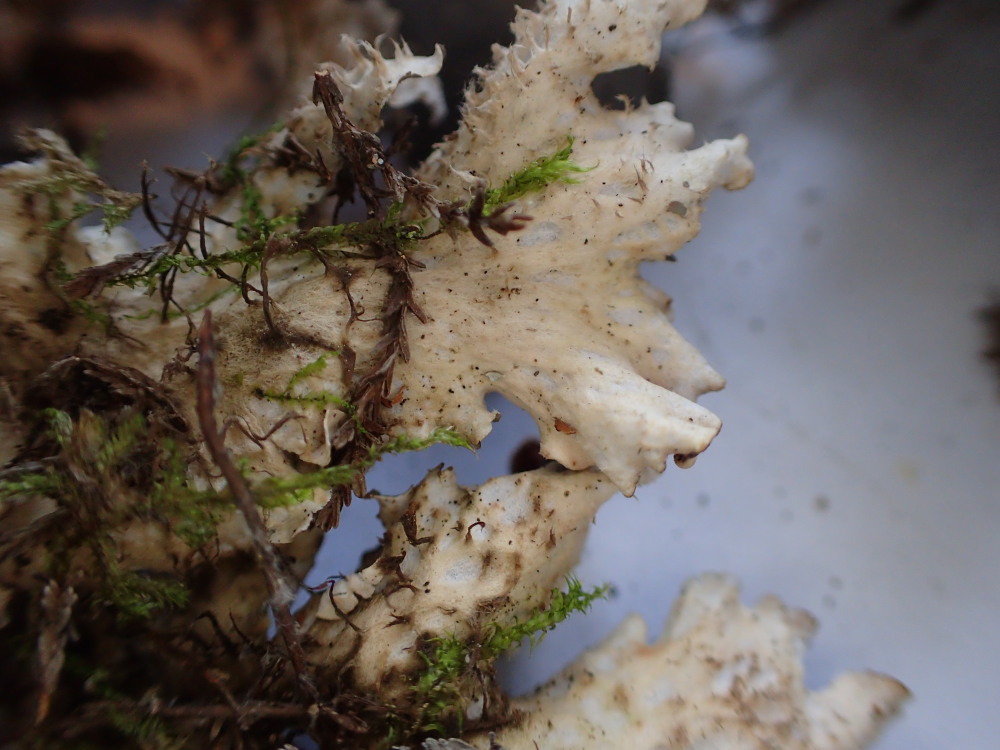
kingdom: Fungi
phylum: Ascomycota
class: Lecanoromycetes
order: Peltigerales
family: Peltigeraceae
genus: Peltigera
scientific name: Peltigera hymenina
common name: hinde-skjoldlav
